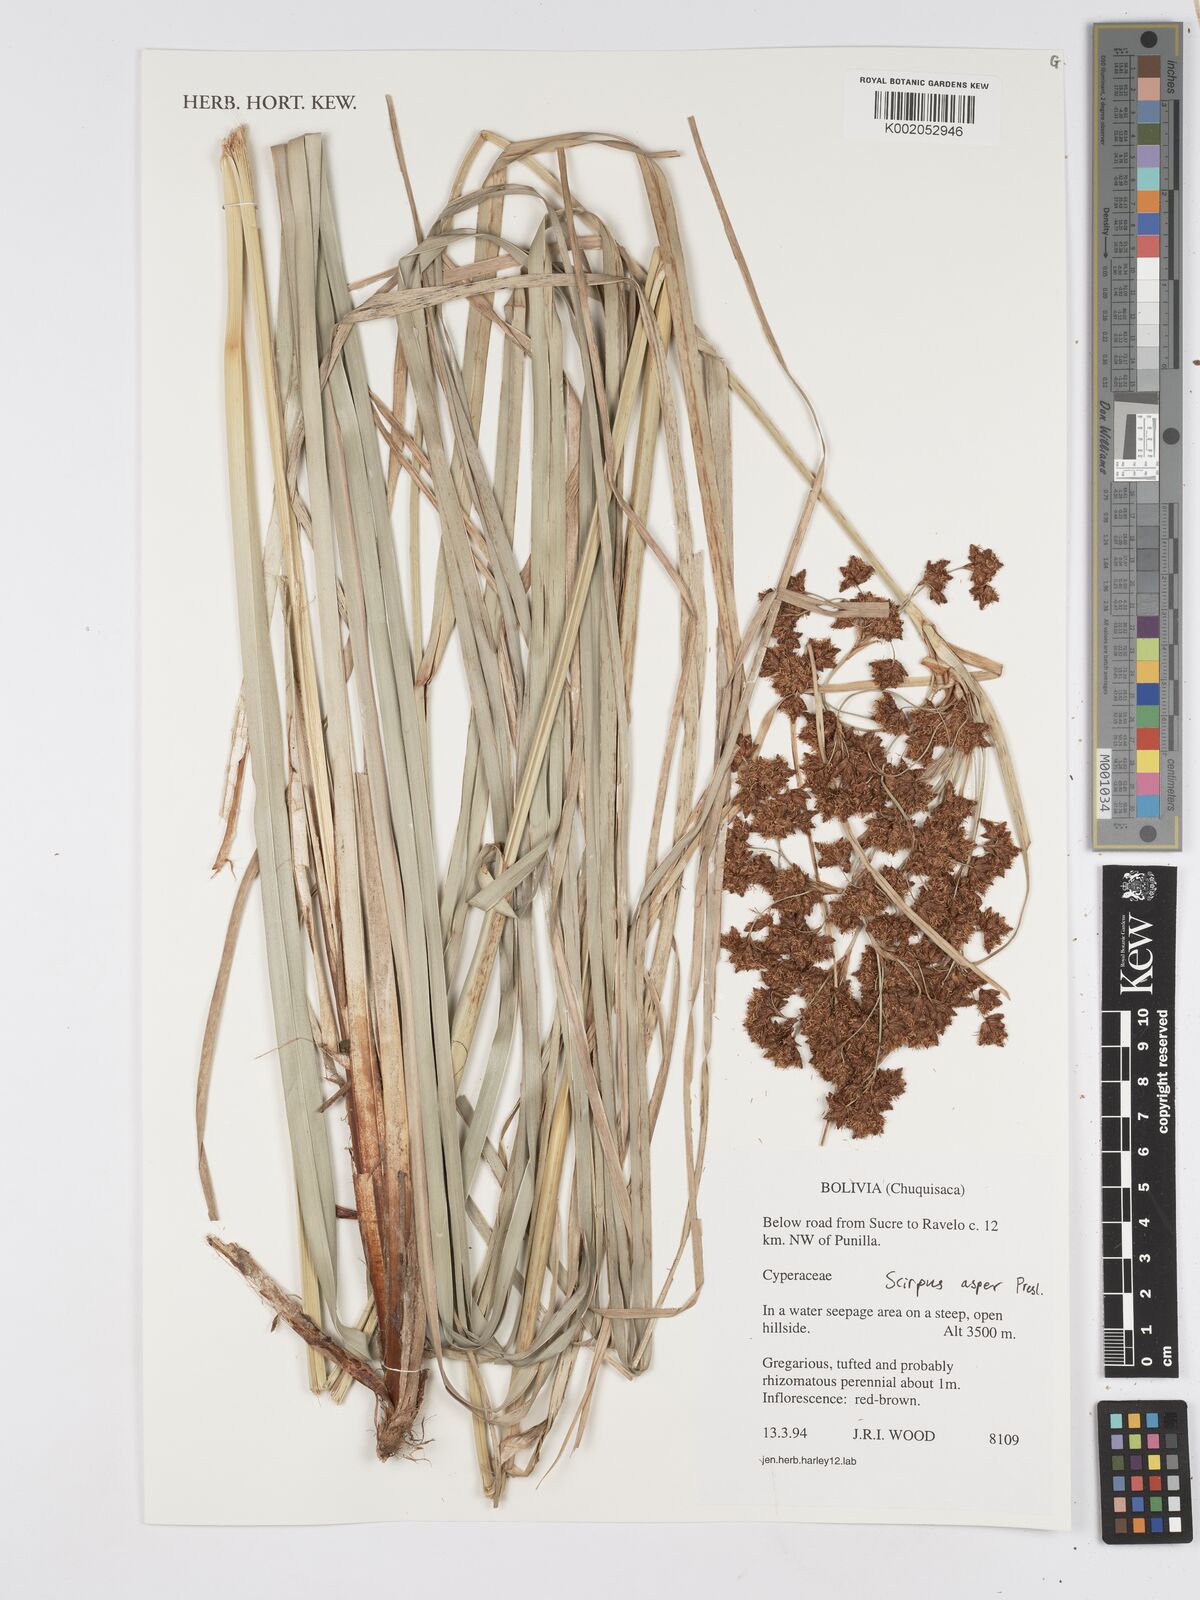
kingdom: Plantae
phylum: Tracheophyta
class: Liliopsida
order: Poales
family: Cyperaceae
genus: Rhodoscirpus
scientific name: Rhodoscirpus asper
